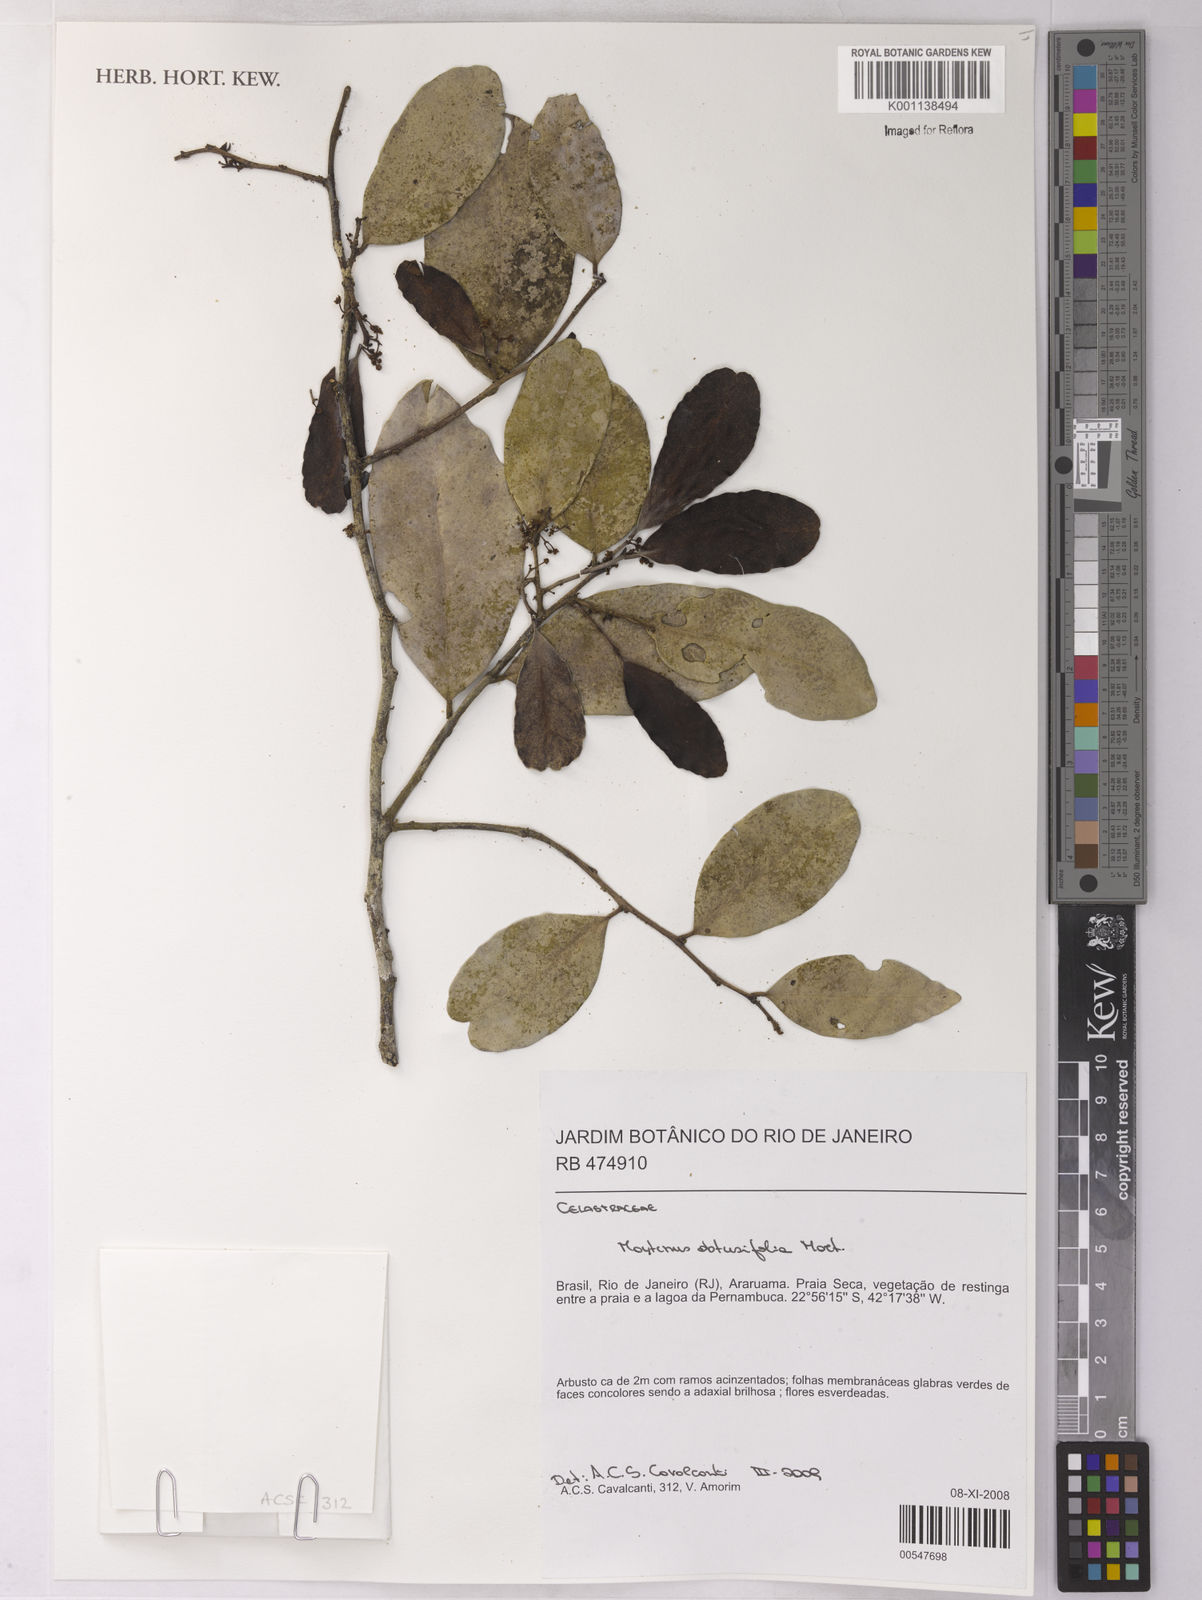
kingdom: Plantae
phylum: Tracheophyta
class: Magnoliopsida
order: Celastrales
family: Celastraceae
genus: Monteverdia
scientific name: Monteverdia obtusifolia
